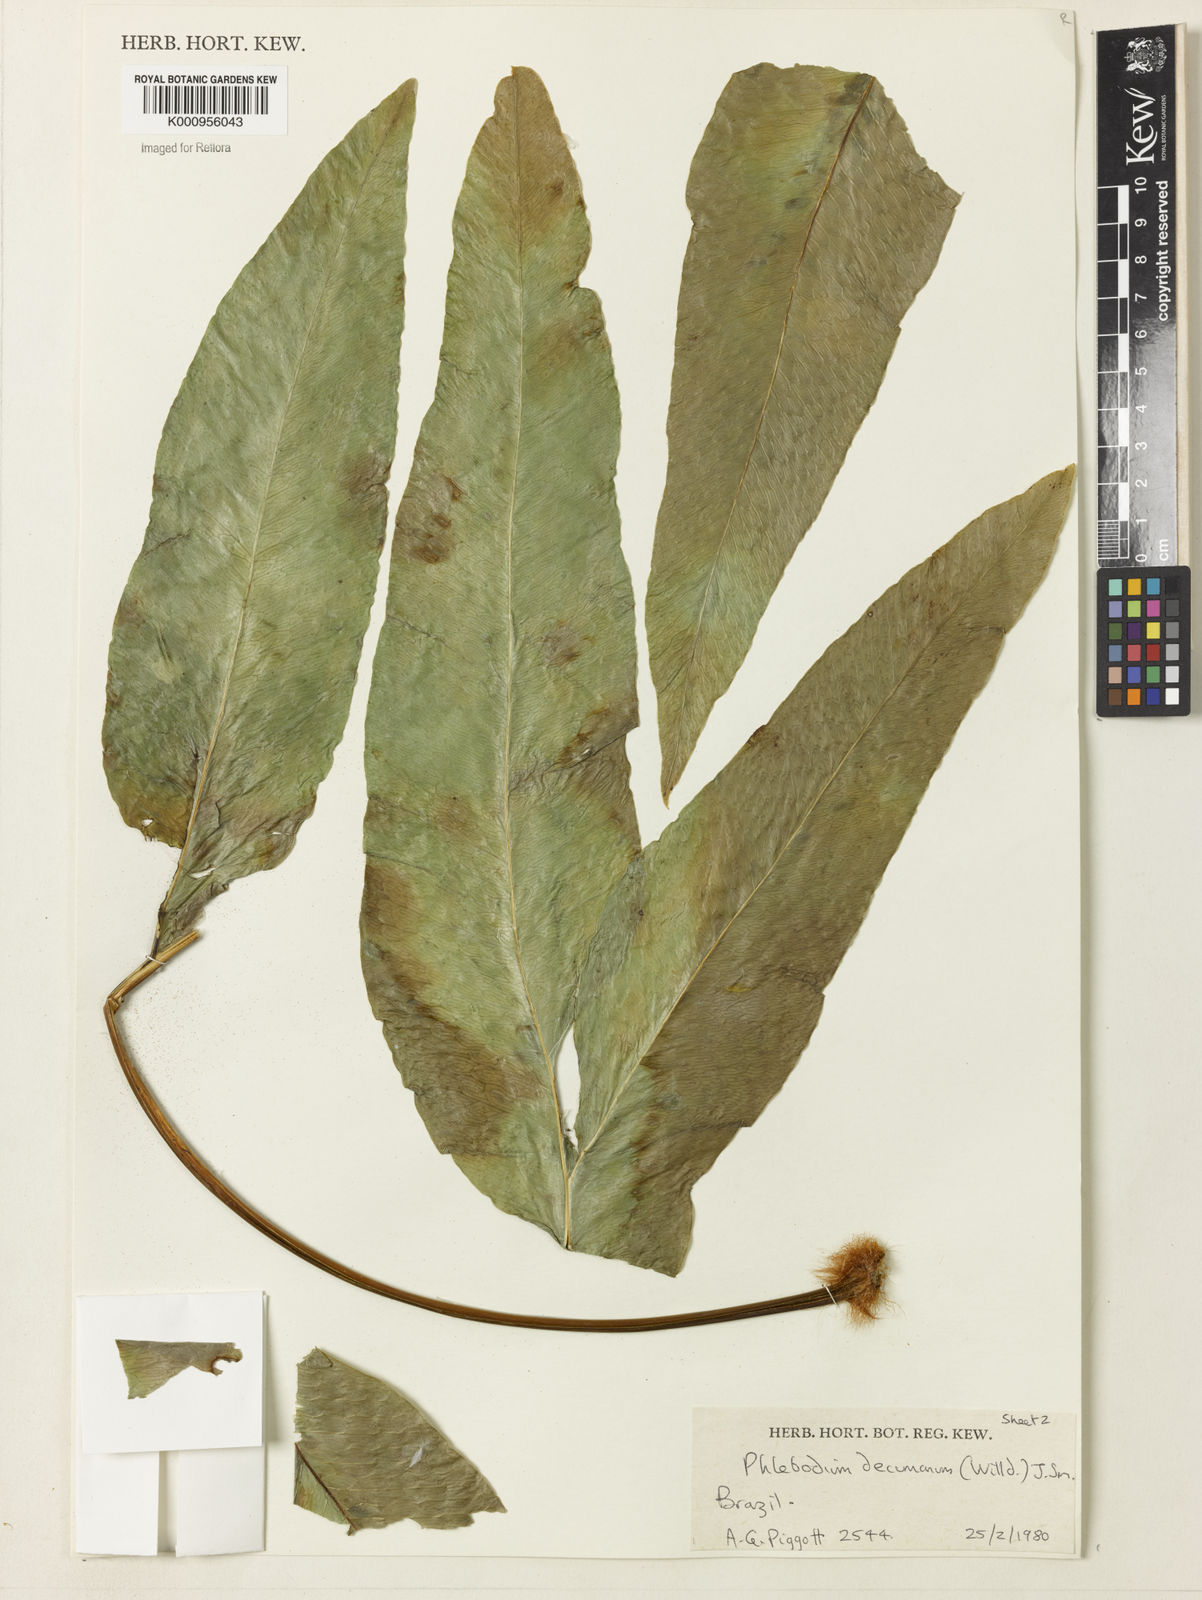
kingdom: Plantae
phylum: Tracheophyta
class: Polypodiopsida
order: Polypodiales
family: Polypodiaceae
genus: Phlebodium
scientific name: Phlebodium decumanum
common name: Golden polypod
